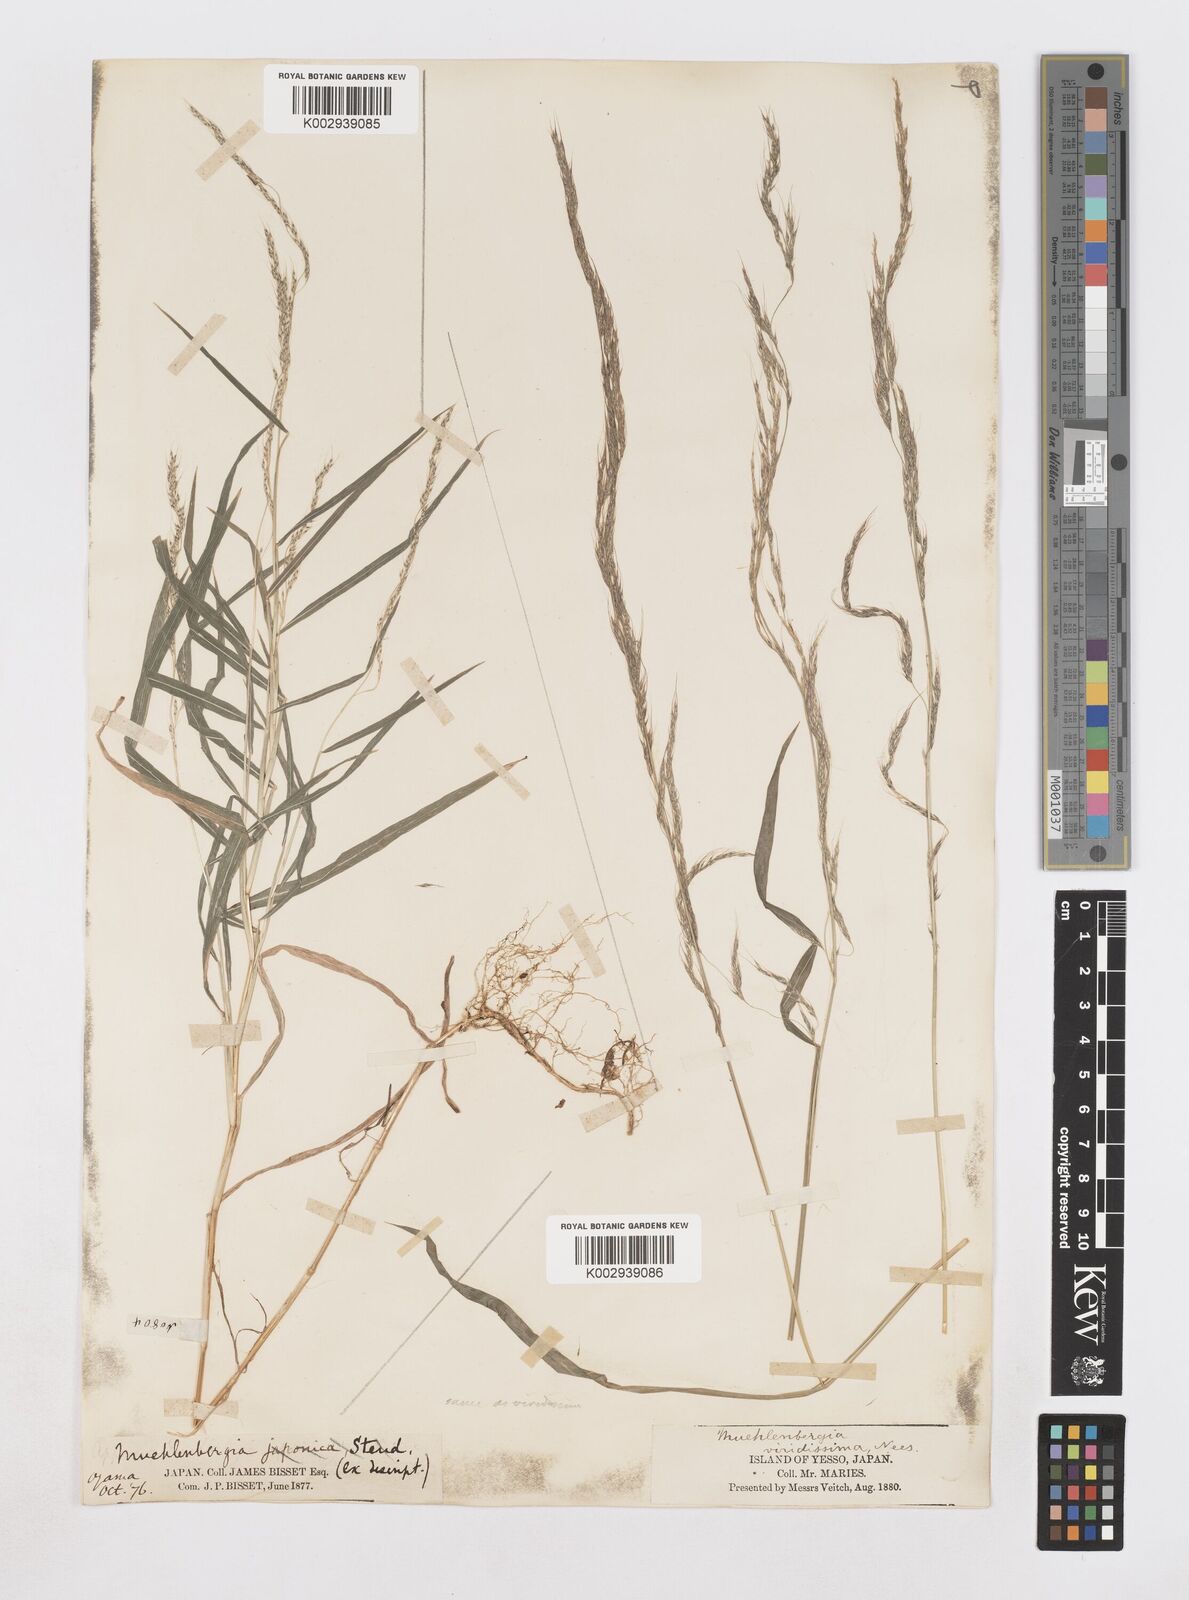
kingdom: Plantae
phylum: Tracheophyta
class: Liliopsida
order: Poales
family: Poaceae
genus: Muhlenbergia
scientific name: Muhlenbergia huegelii
